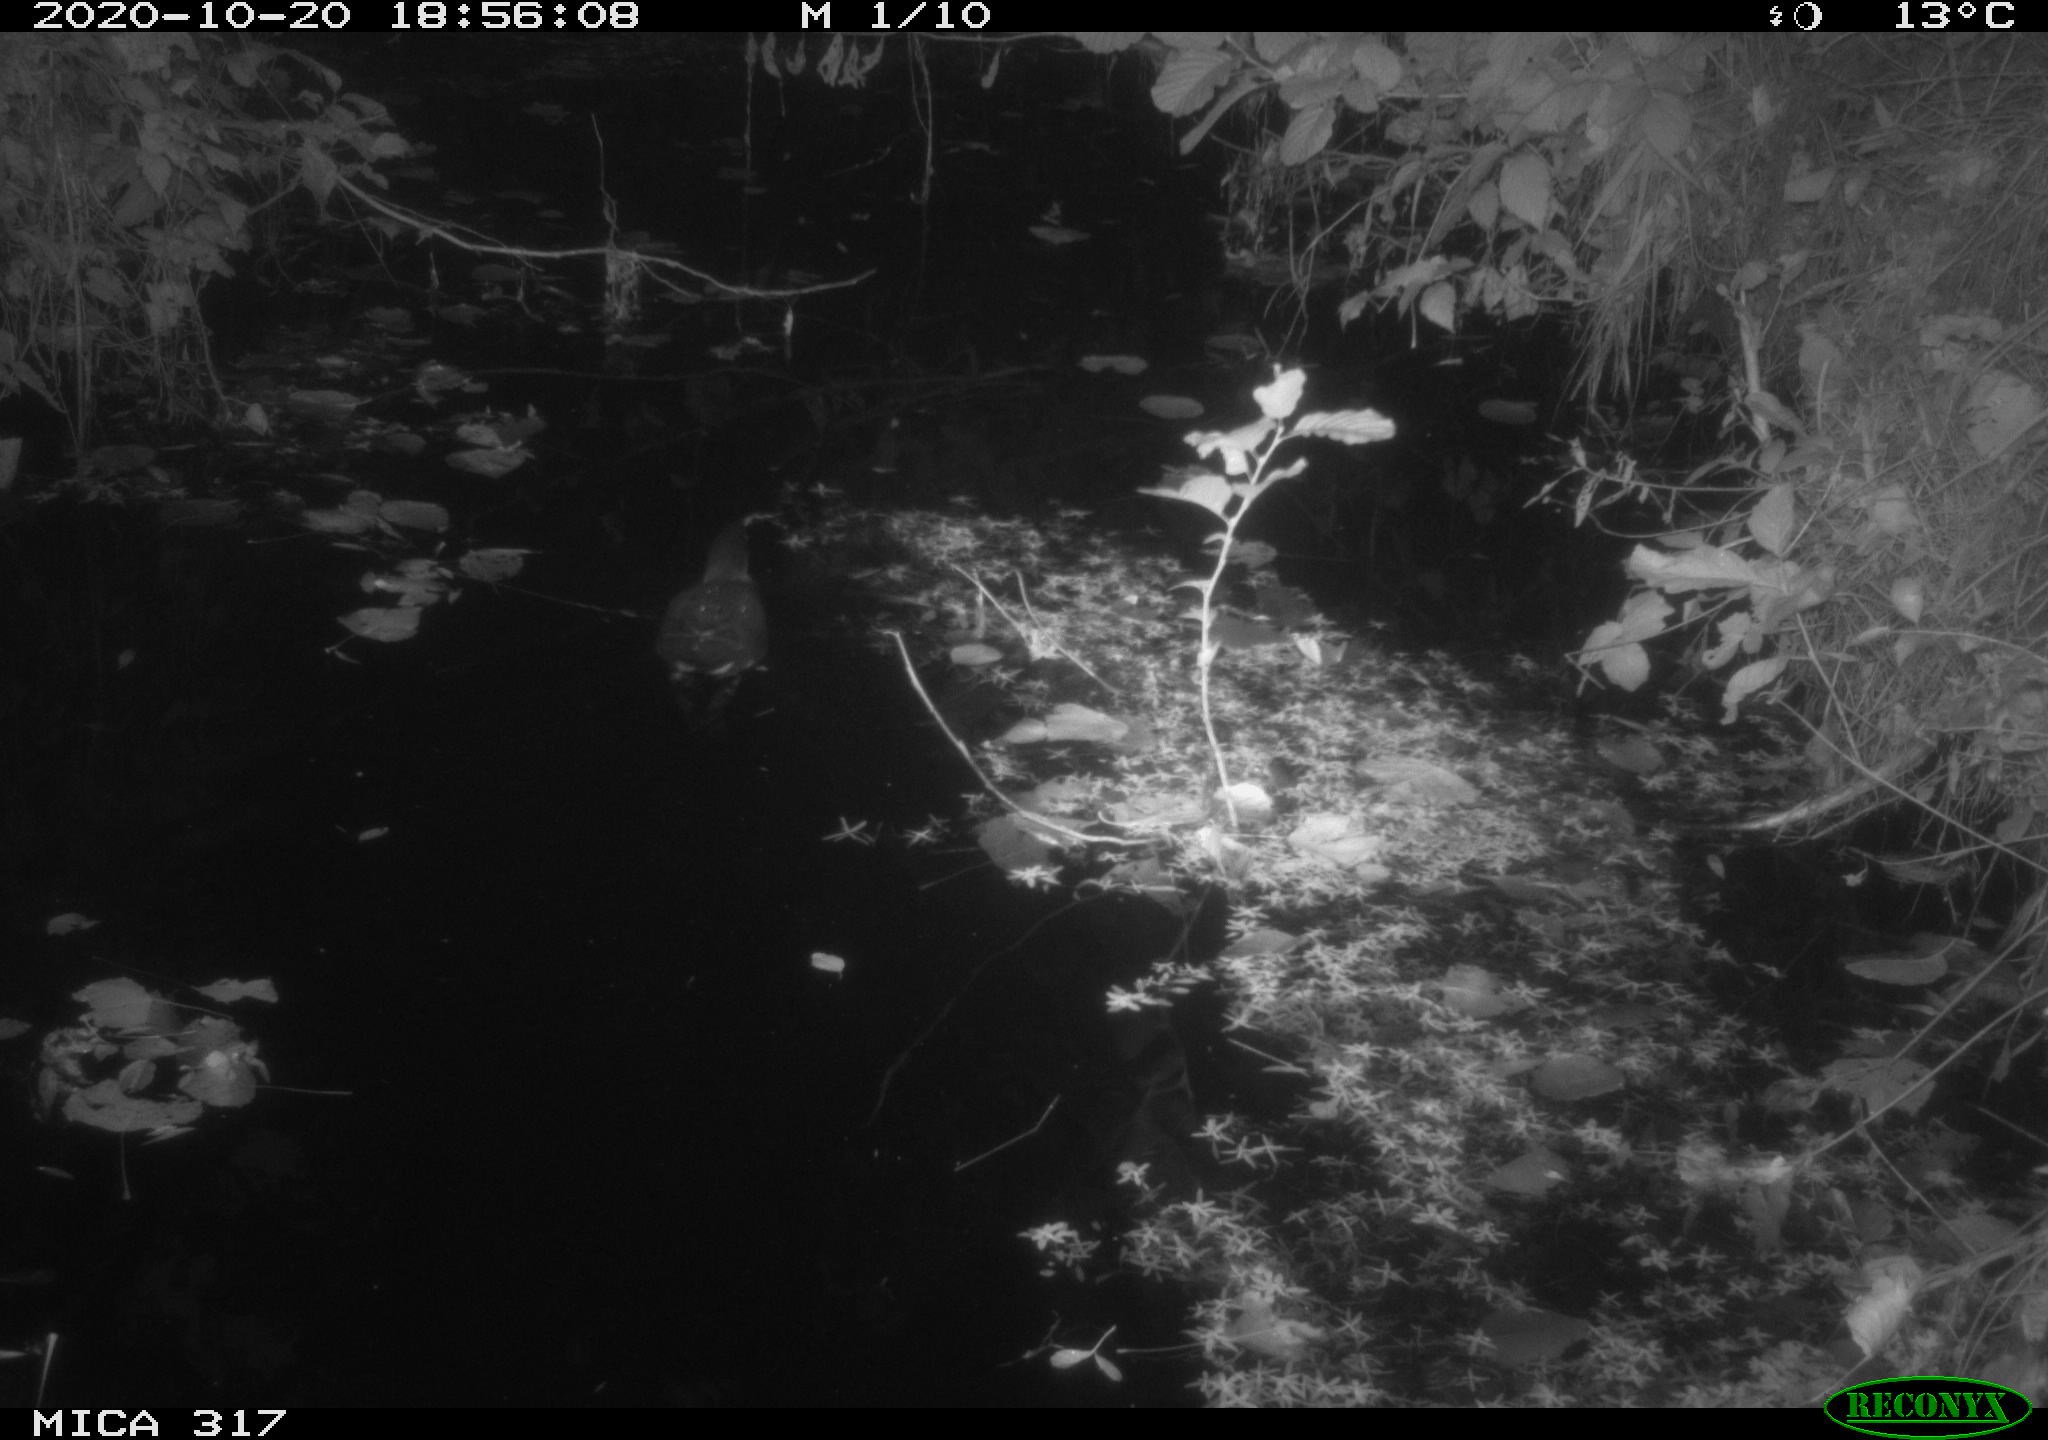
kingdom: Animalia
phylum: Chordata
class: Aves
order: Gruiformes
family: Rallidae
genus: Gallinula
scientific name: Gallinula chloropus
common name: Common moorhen
